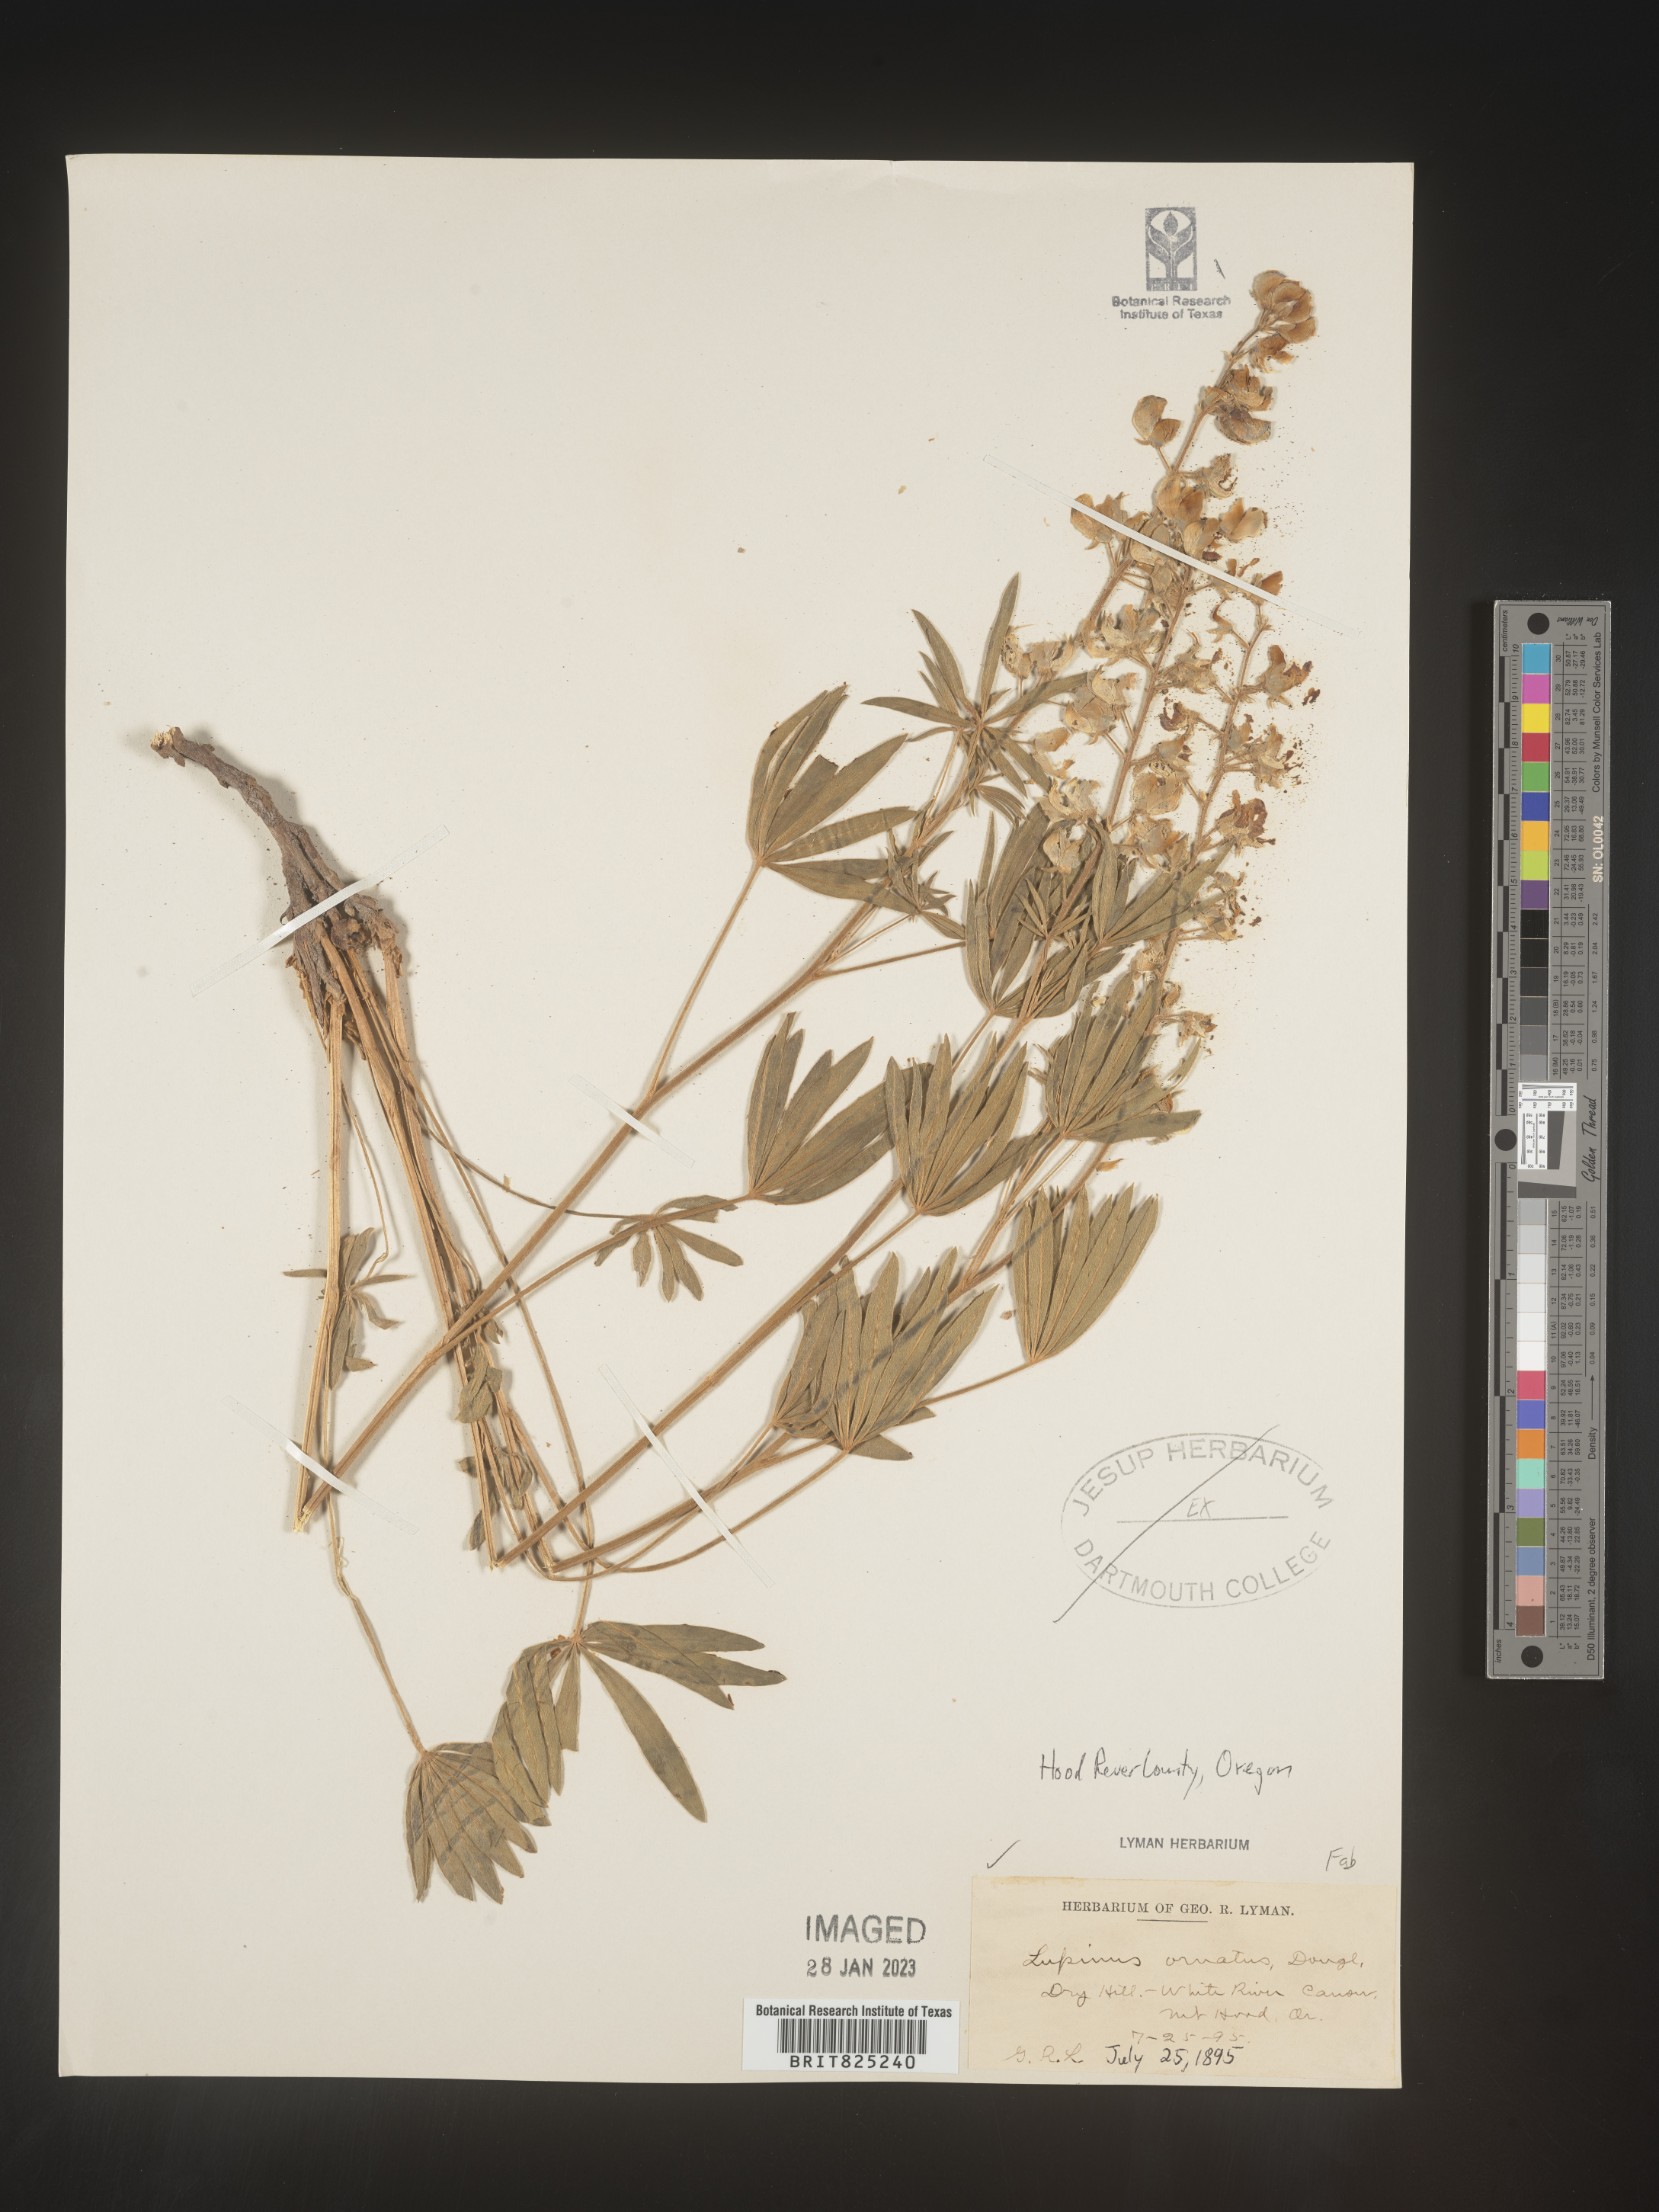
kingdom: Plantae
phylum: Tracheophyta
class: Magnoliopsida
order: Fabales
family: Fabaceae
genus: Lupinus
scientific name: Lupinus
